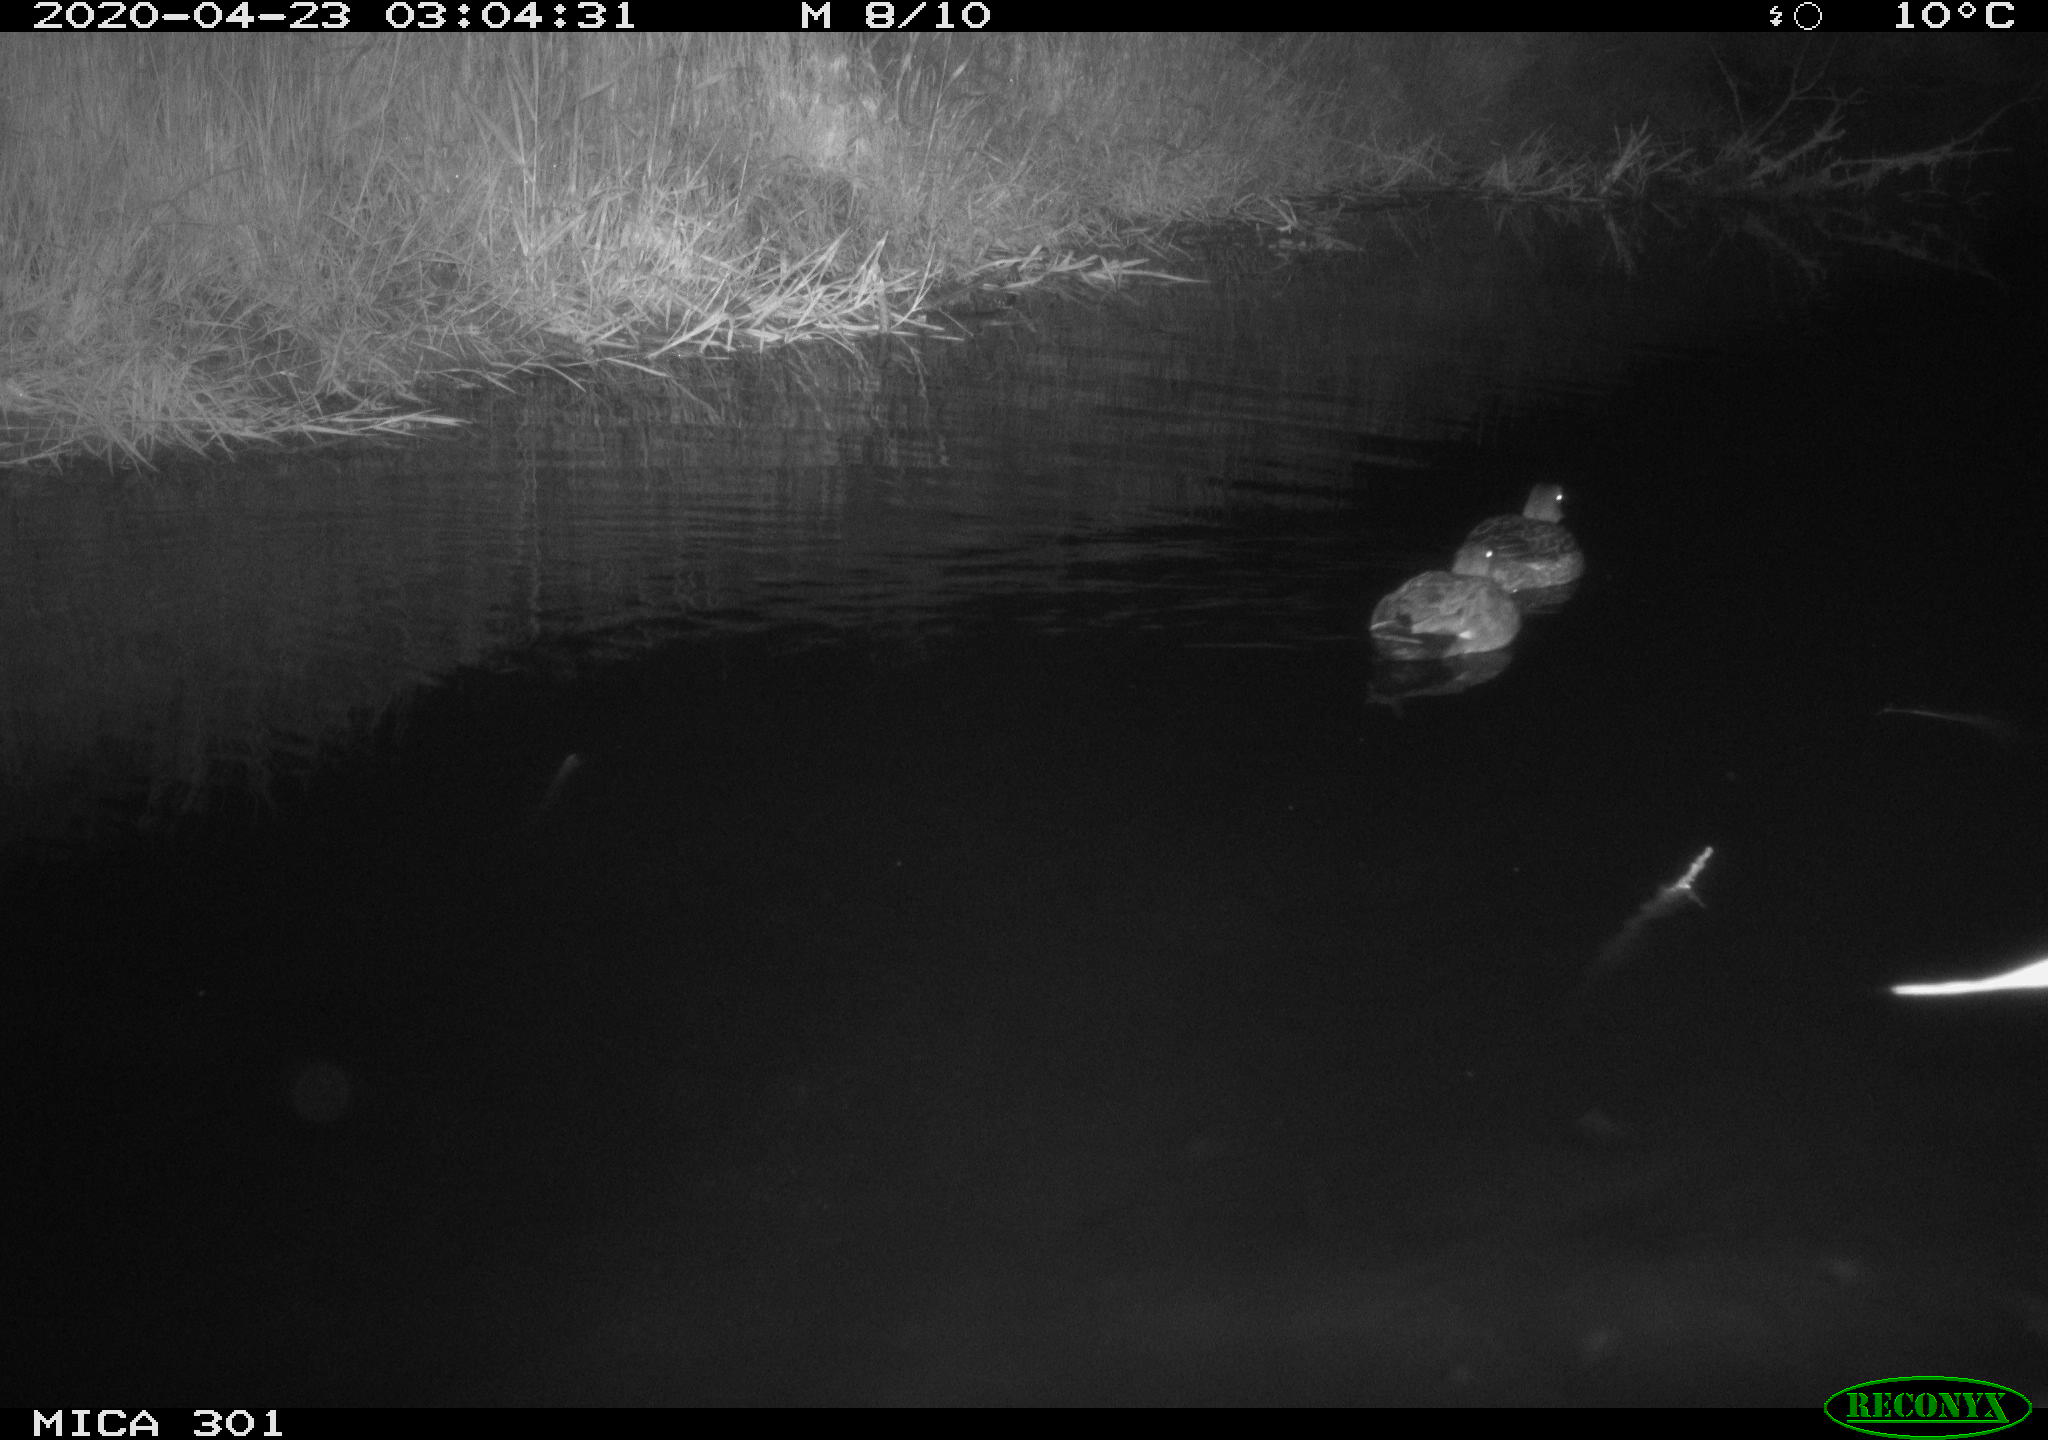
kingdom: Animalia
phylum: Chordata
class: Aves
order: Anseriformes
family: Anatidae
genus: Mareca
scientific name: Mareca strepera
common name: Gadwall
